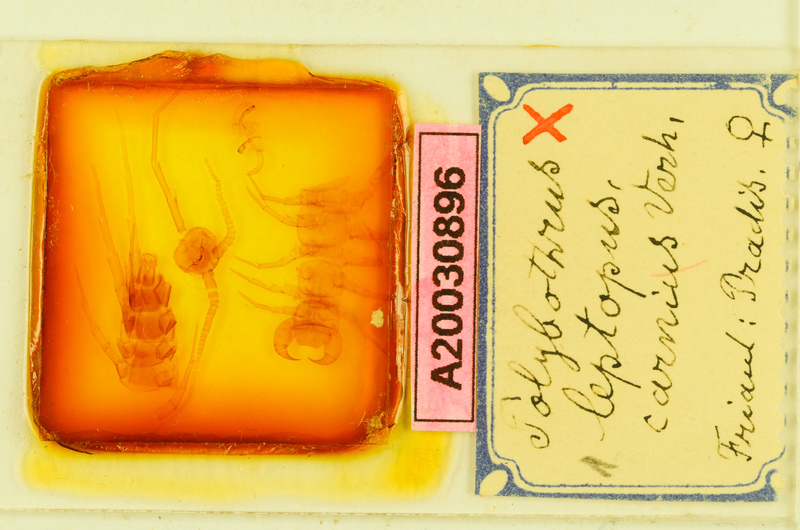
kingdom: Animalia
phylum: Arthropoda
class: Chilopoda
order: Lithobiomorpha
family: Lithobiidae
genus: Polybothrus
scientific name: Polybothrus leptopus
